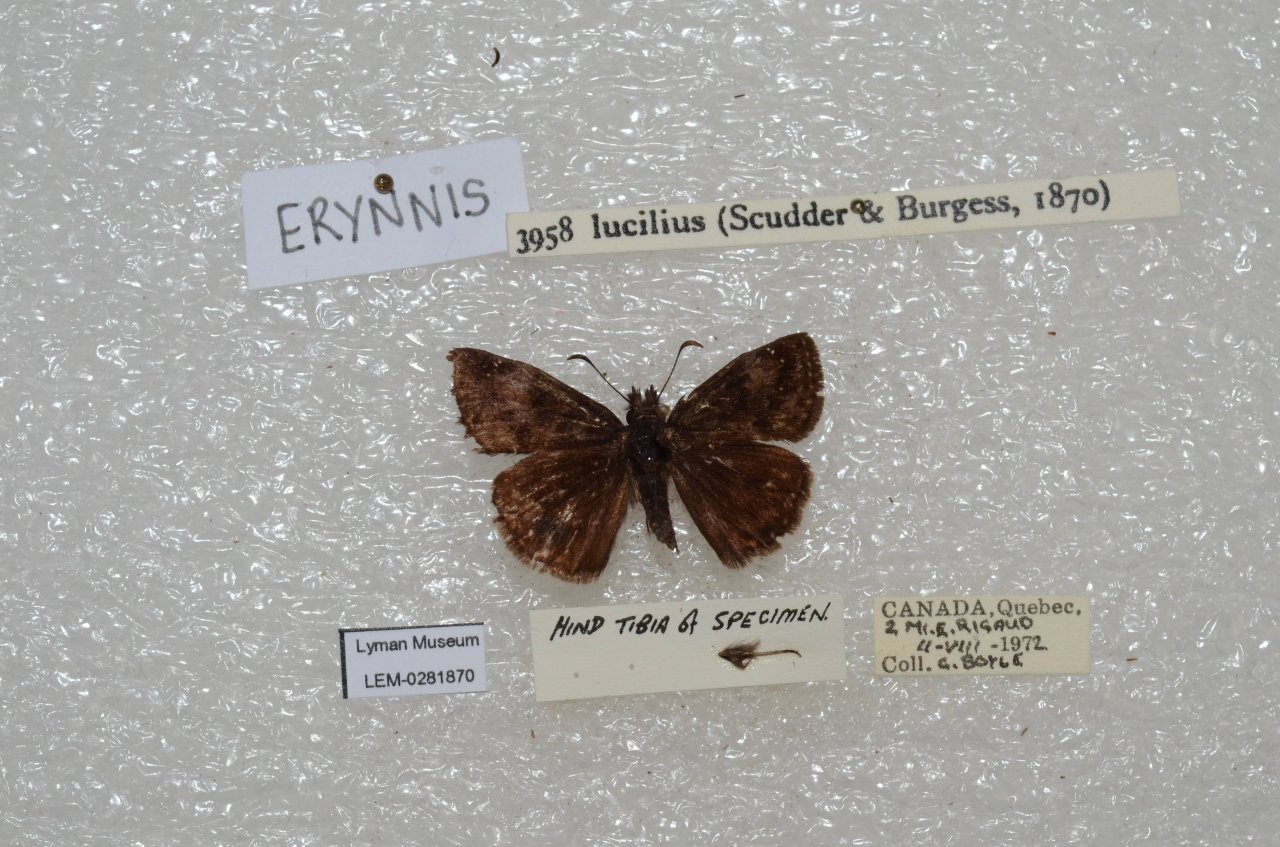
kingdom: Animalia
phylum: Arthropoda
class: Insecta
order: Lepidoptera
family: Hesperiidae
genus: Gesta
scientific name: Gesta
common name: Columbine Duskywing
